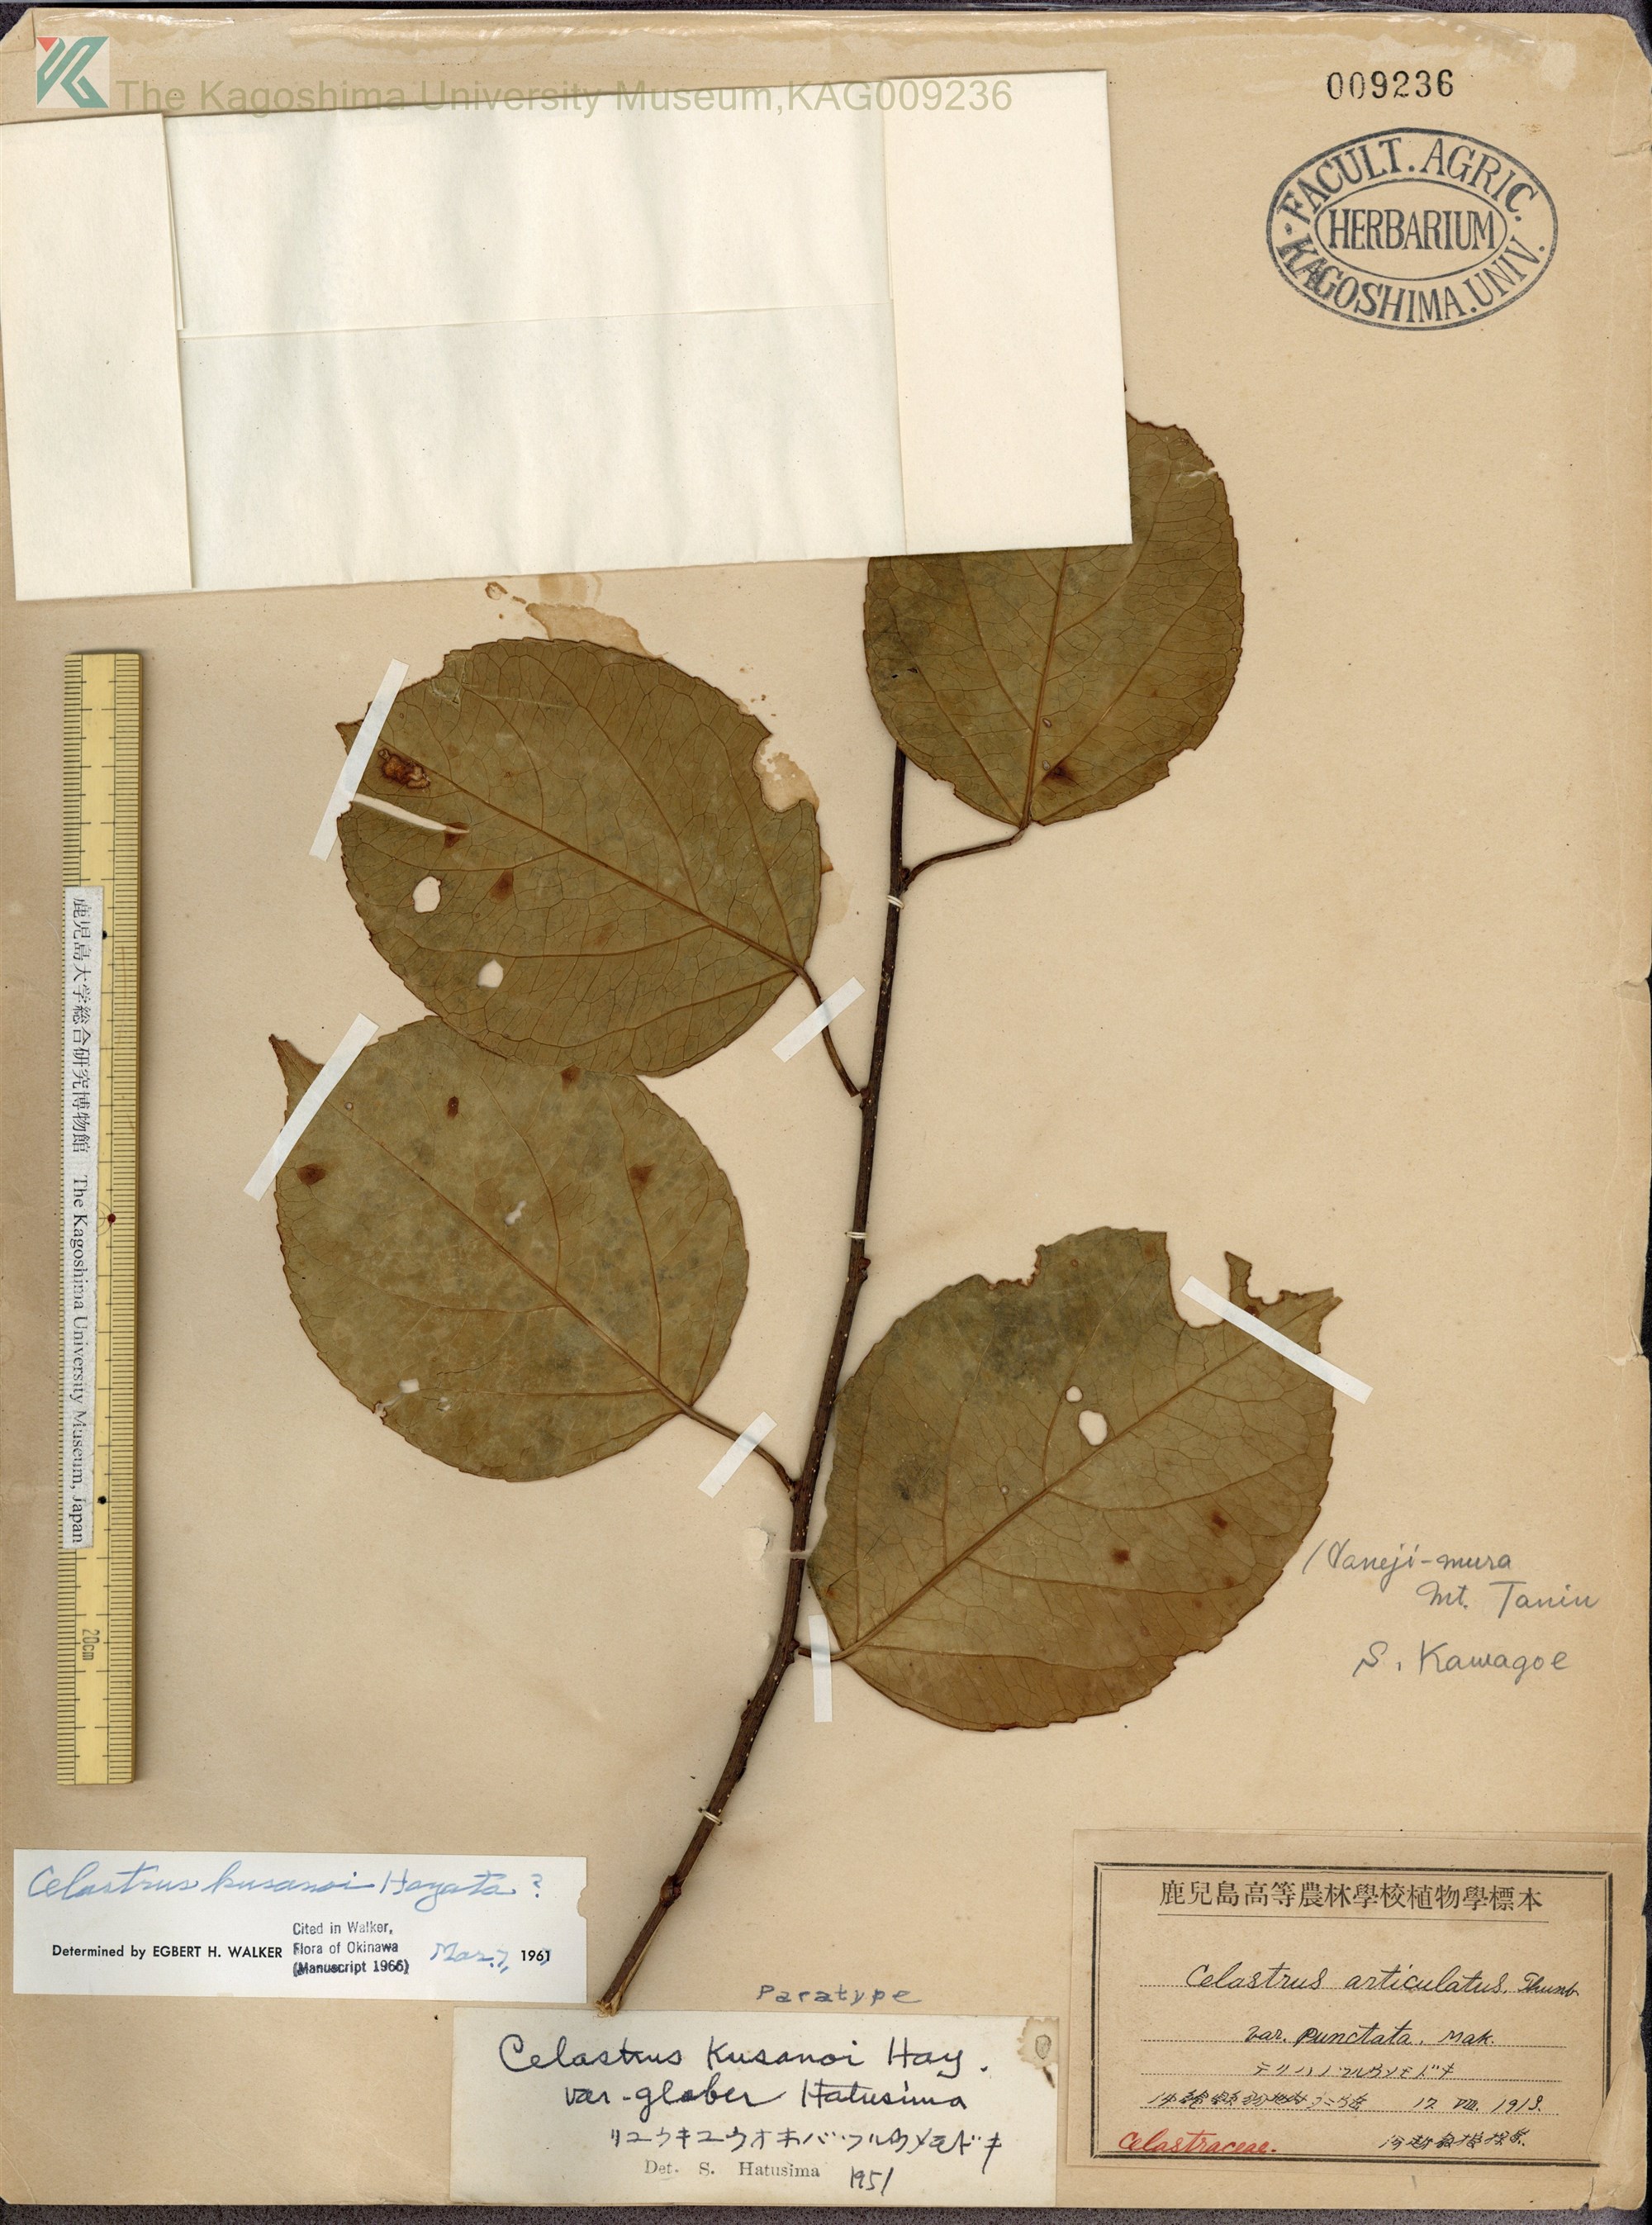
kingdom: Plantae
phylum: Tracheophyta
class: Magnoliopsida
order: Celastrales
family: Celastraceae
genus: Celastrus
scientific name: Celastrus hypoleucus
